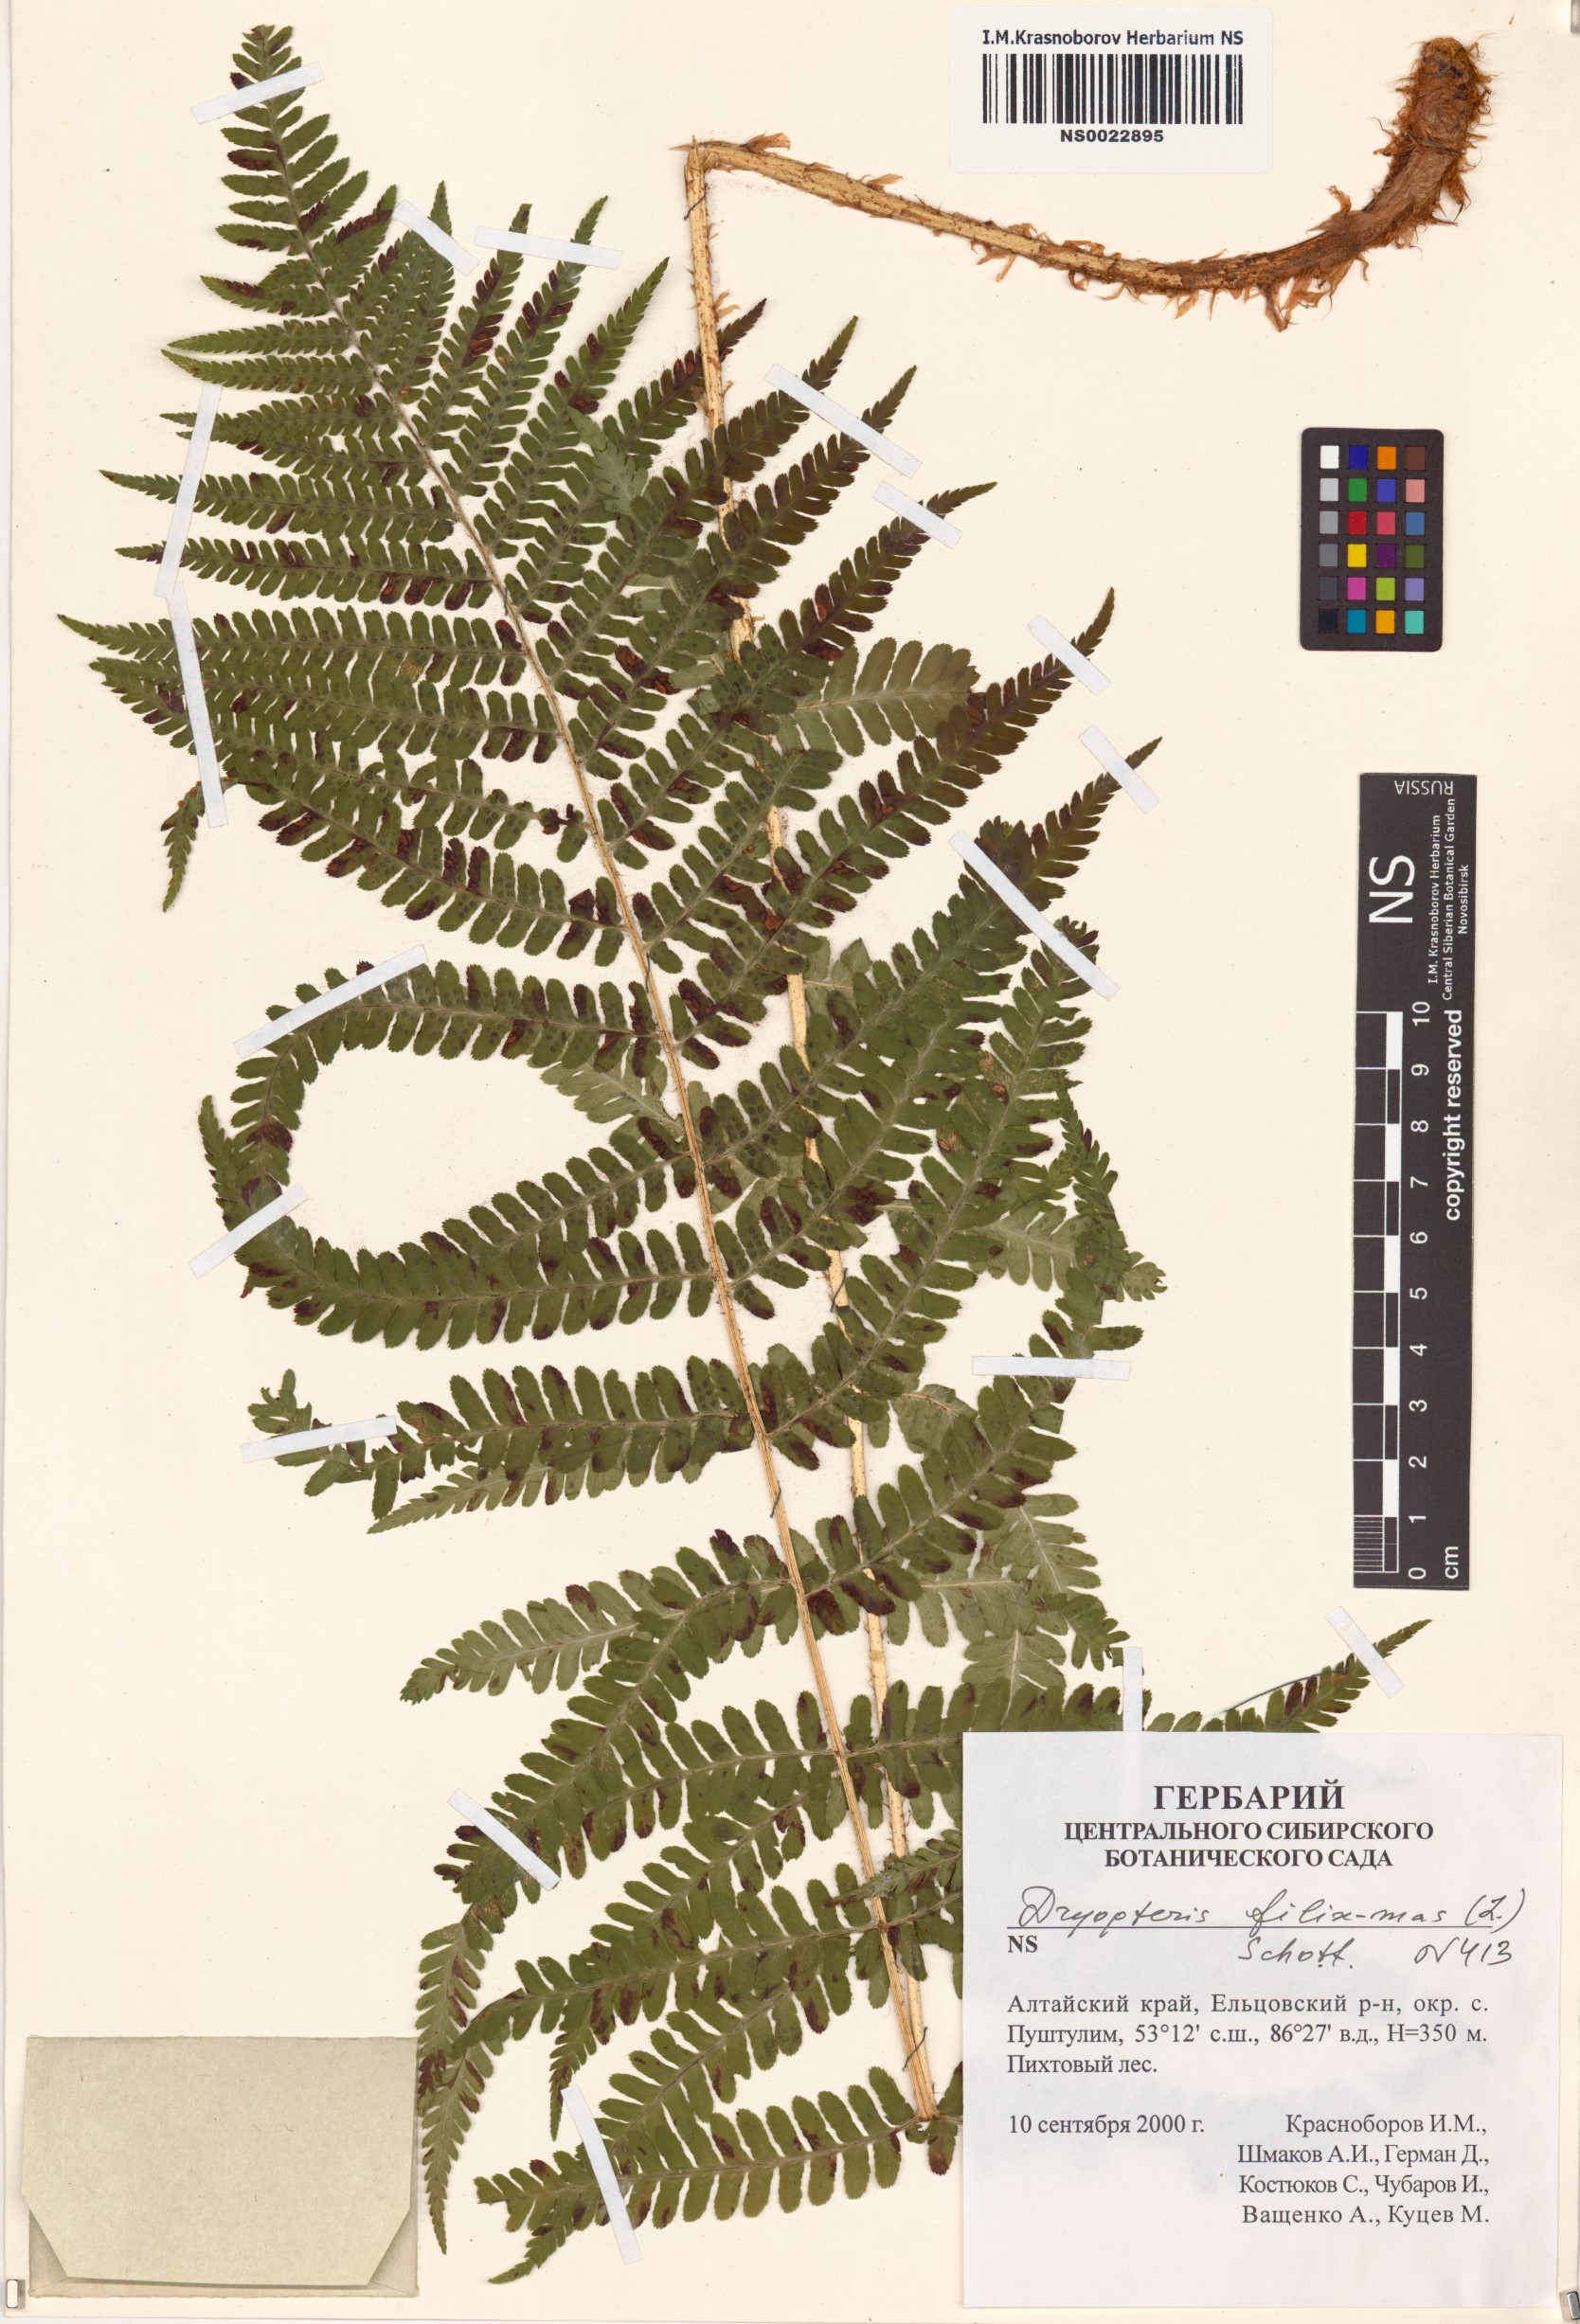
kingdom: Plantae
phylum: Tracheophyta
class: Polypodiopsida
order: Polypodiales
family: Dryopteridaceae
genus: Dryopteris
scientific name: Dryopteris filix-mas
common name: Male fern
